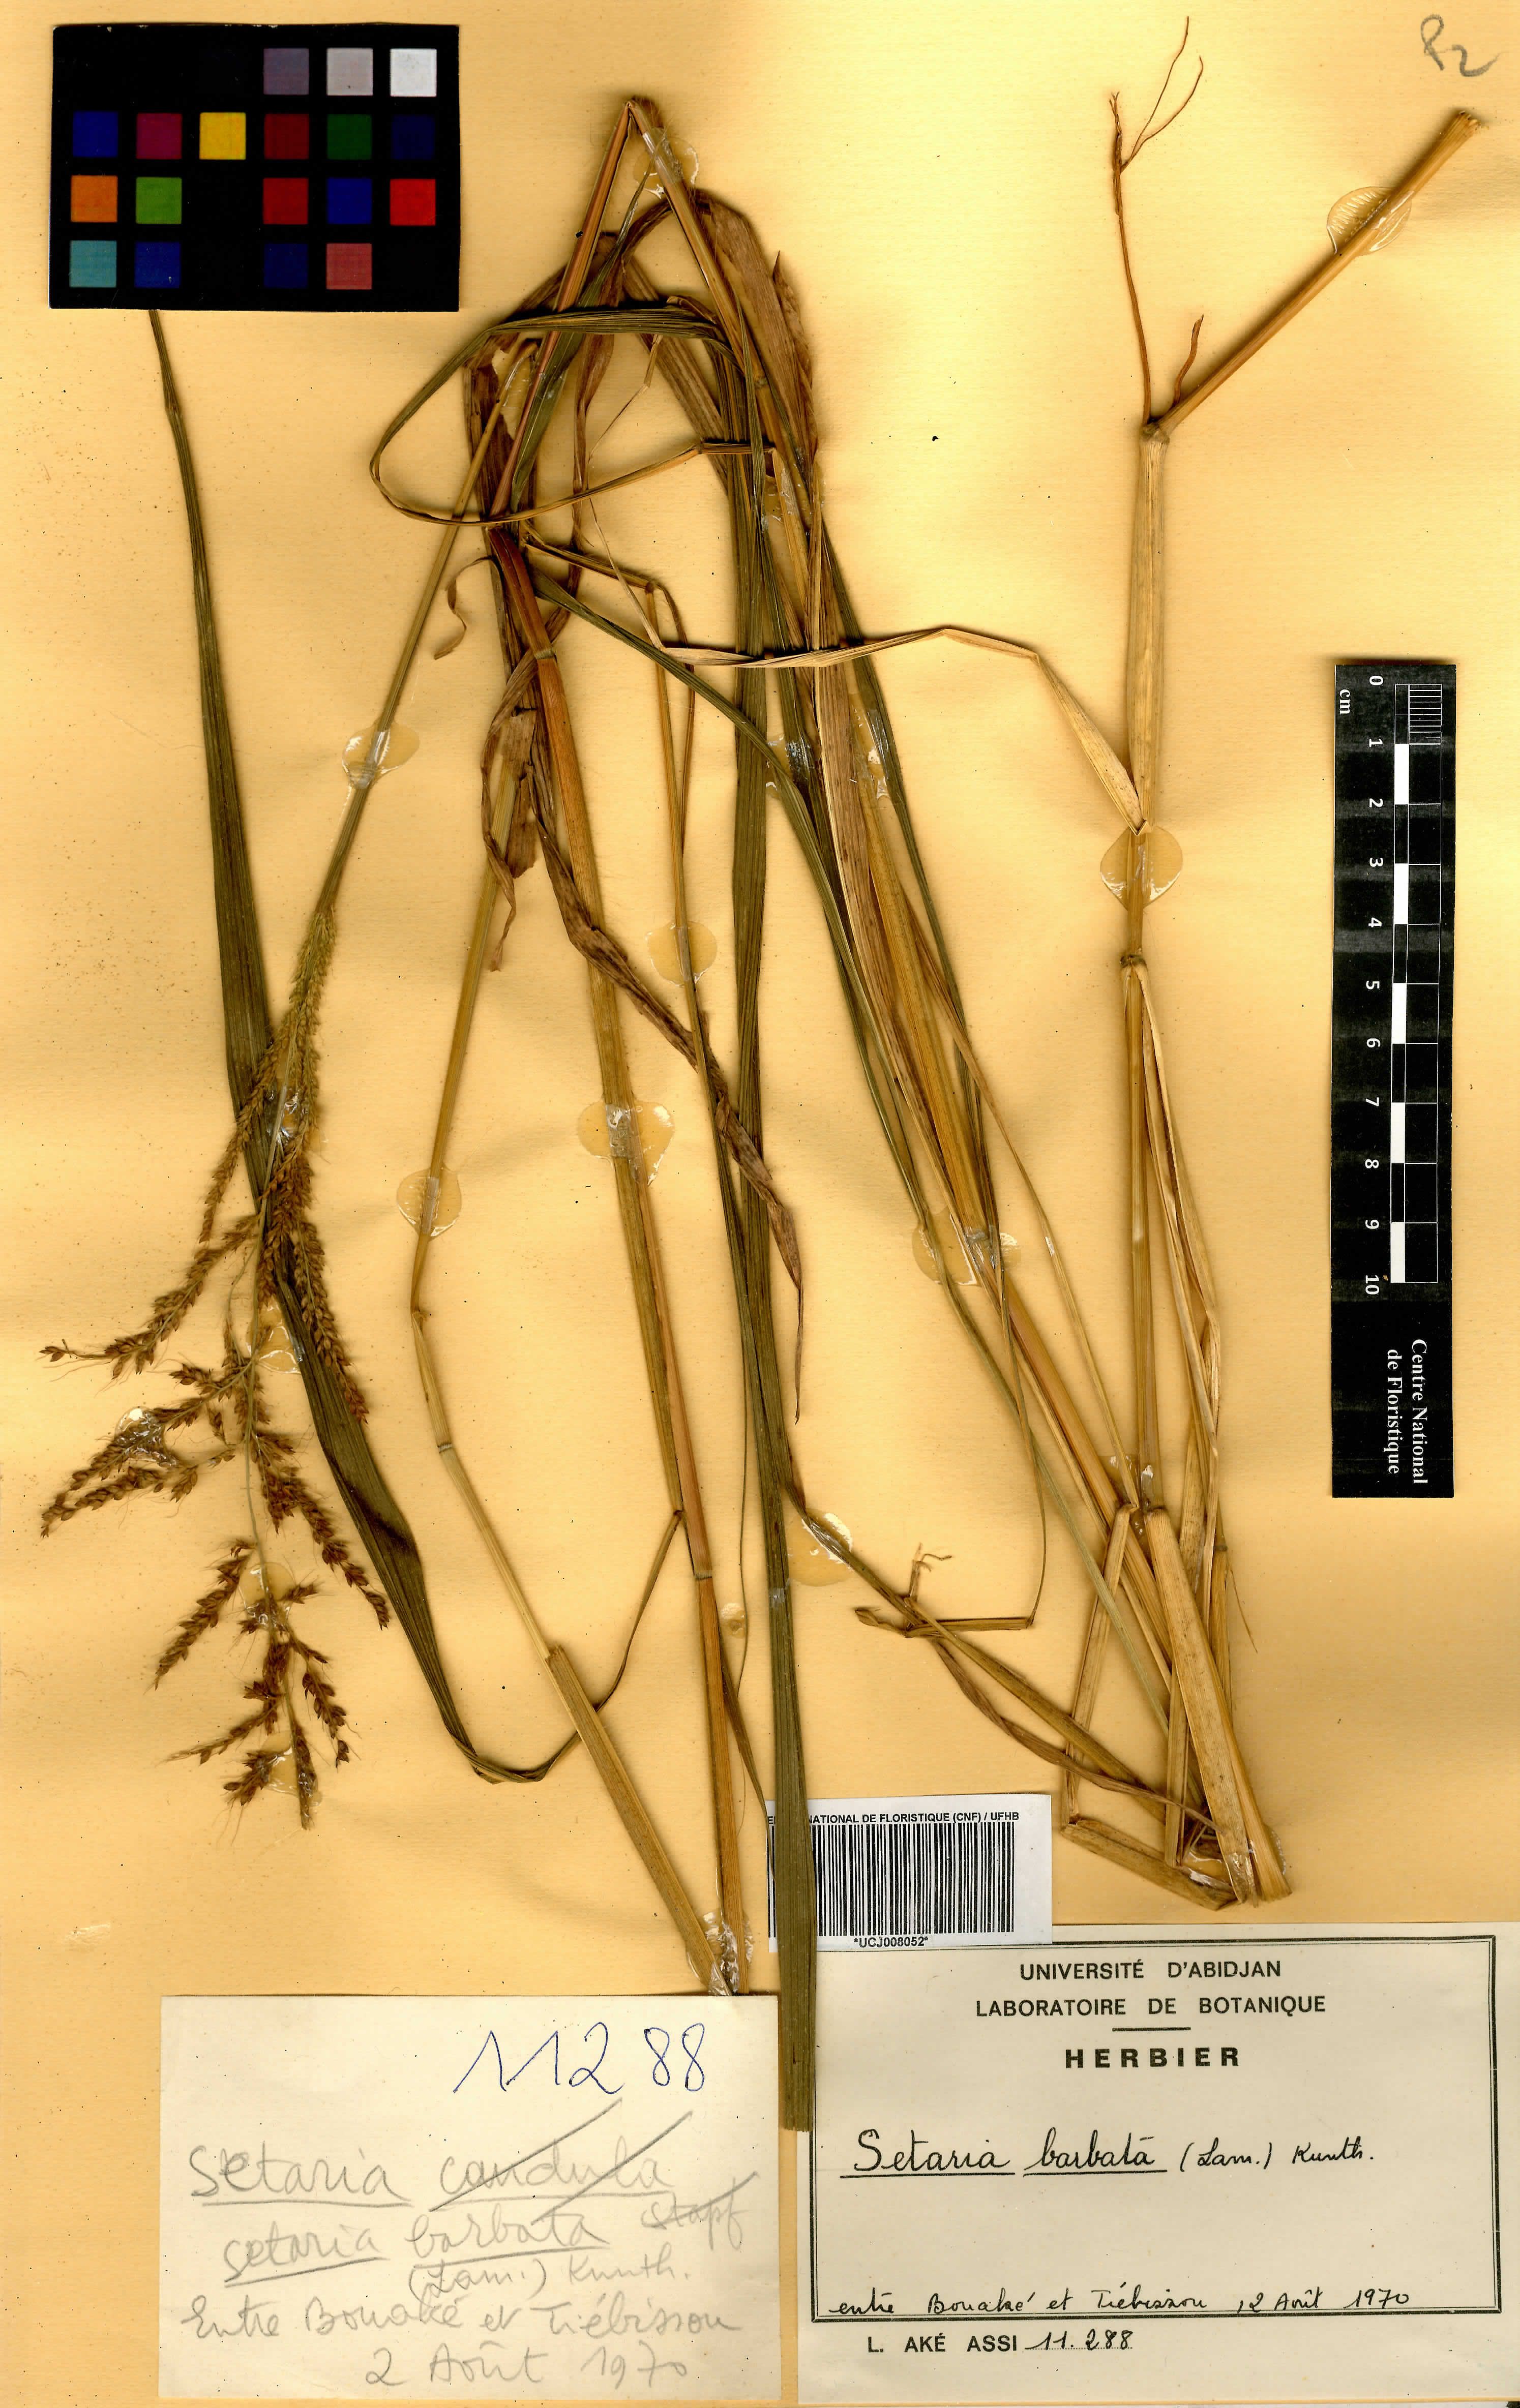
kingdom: Plantae
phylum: Tracheophyta
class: Liliopsida
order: Poales
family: Poaceae
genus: Setaria
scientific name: Setaria poiretiana
